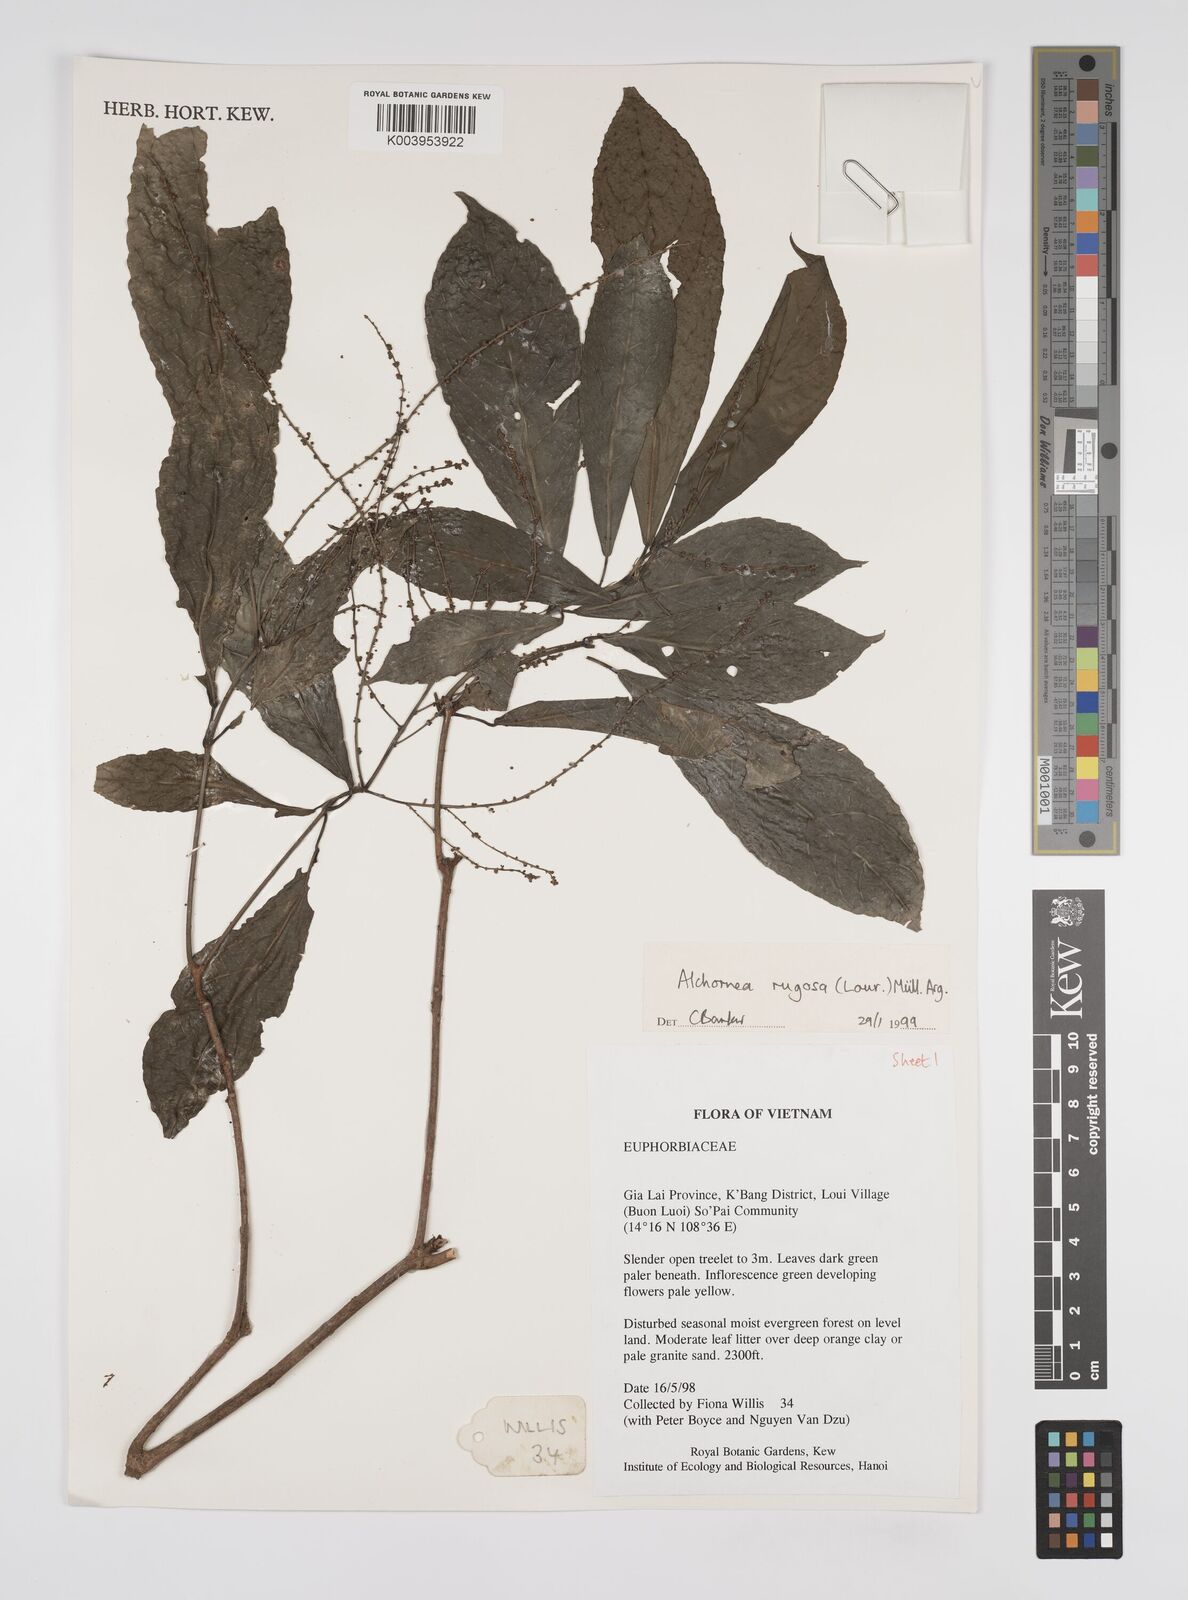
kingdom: Plantae
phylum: Tracheophyta
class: Magnoliopsida
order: Malpighiales
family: Euphorbiaceae
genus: Alchornea
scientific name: Alchornea rugosa
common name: Alchorntree
